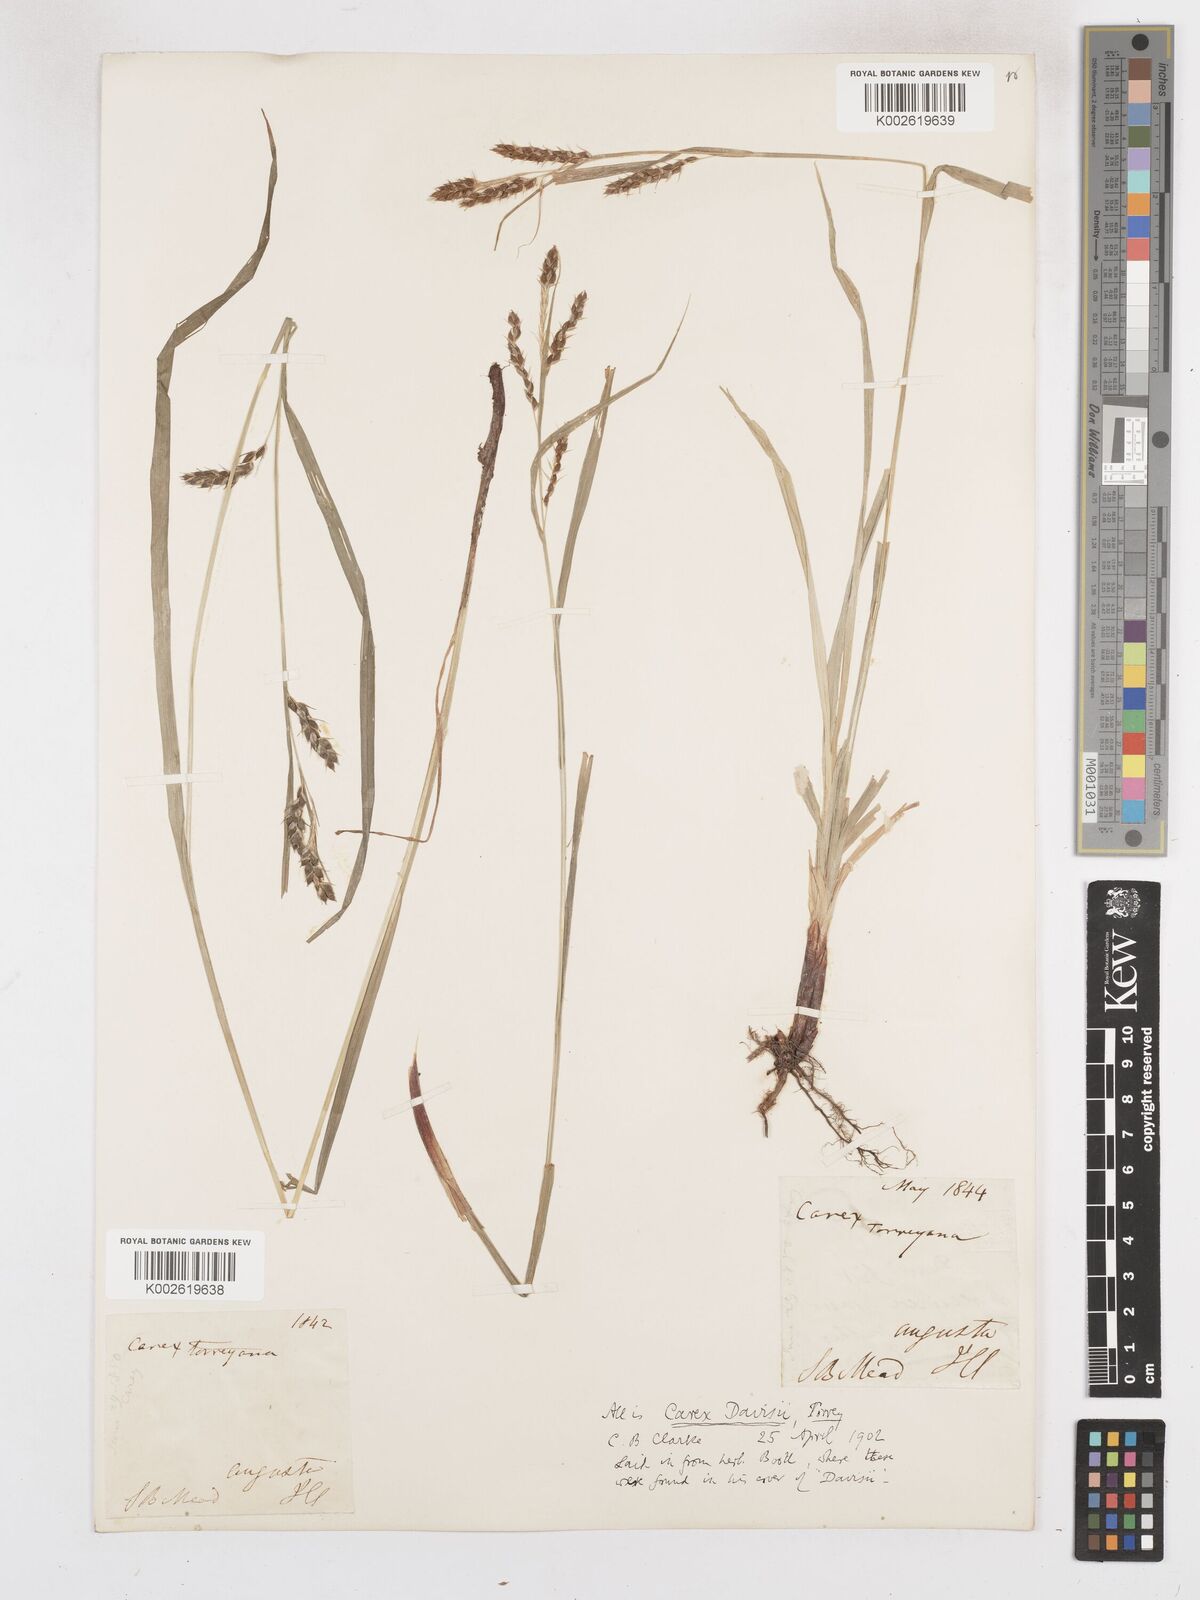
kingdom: Plantae
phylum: Tracheophyta
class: Liliopsida
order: Poales
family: Cyperaceae
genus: Carex
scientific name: Carex davisii
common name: Davis' sedge
